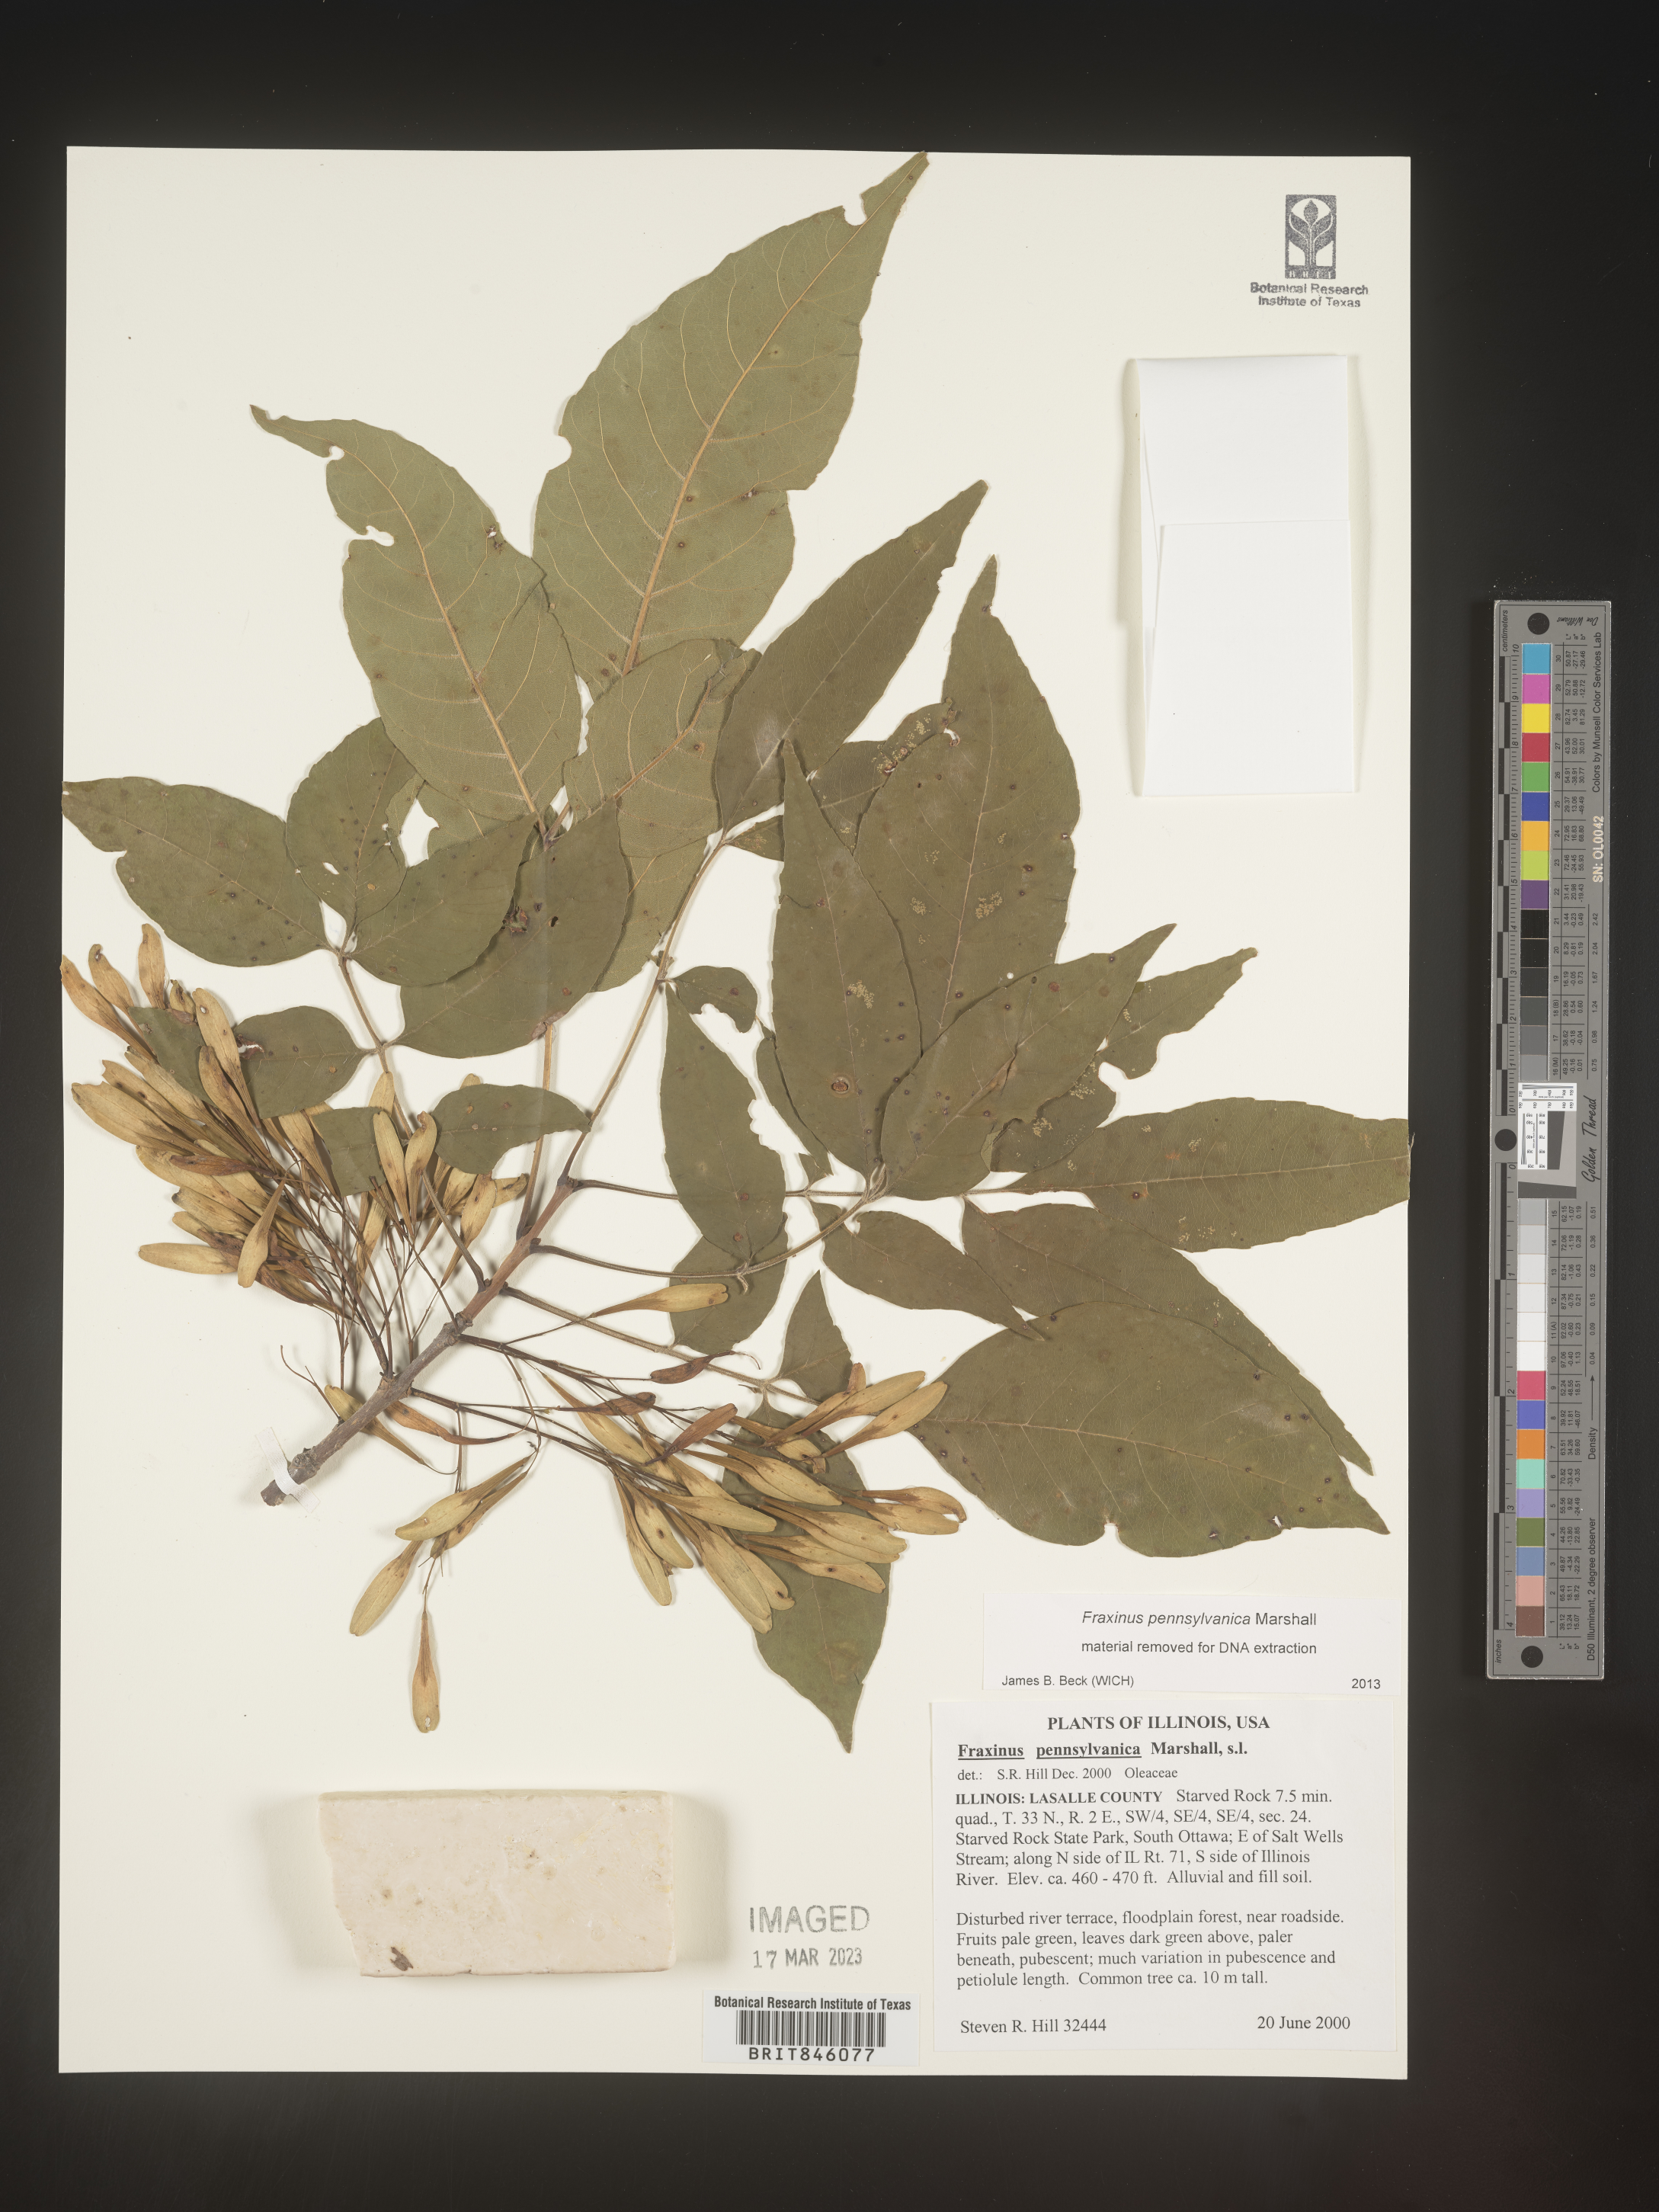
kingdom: Plantae
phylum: Tracheophyta
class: Magnoliopsida
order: Lamiales
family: Oleaceae
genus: Fraxinus
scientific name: Fraxinus pennsylvanica
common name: Green ash
